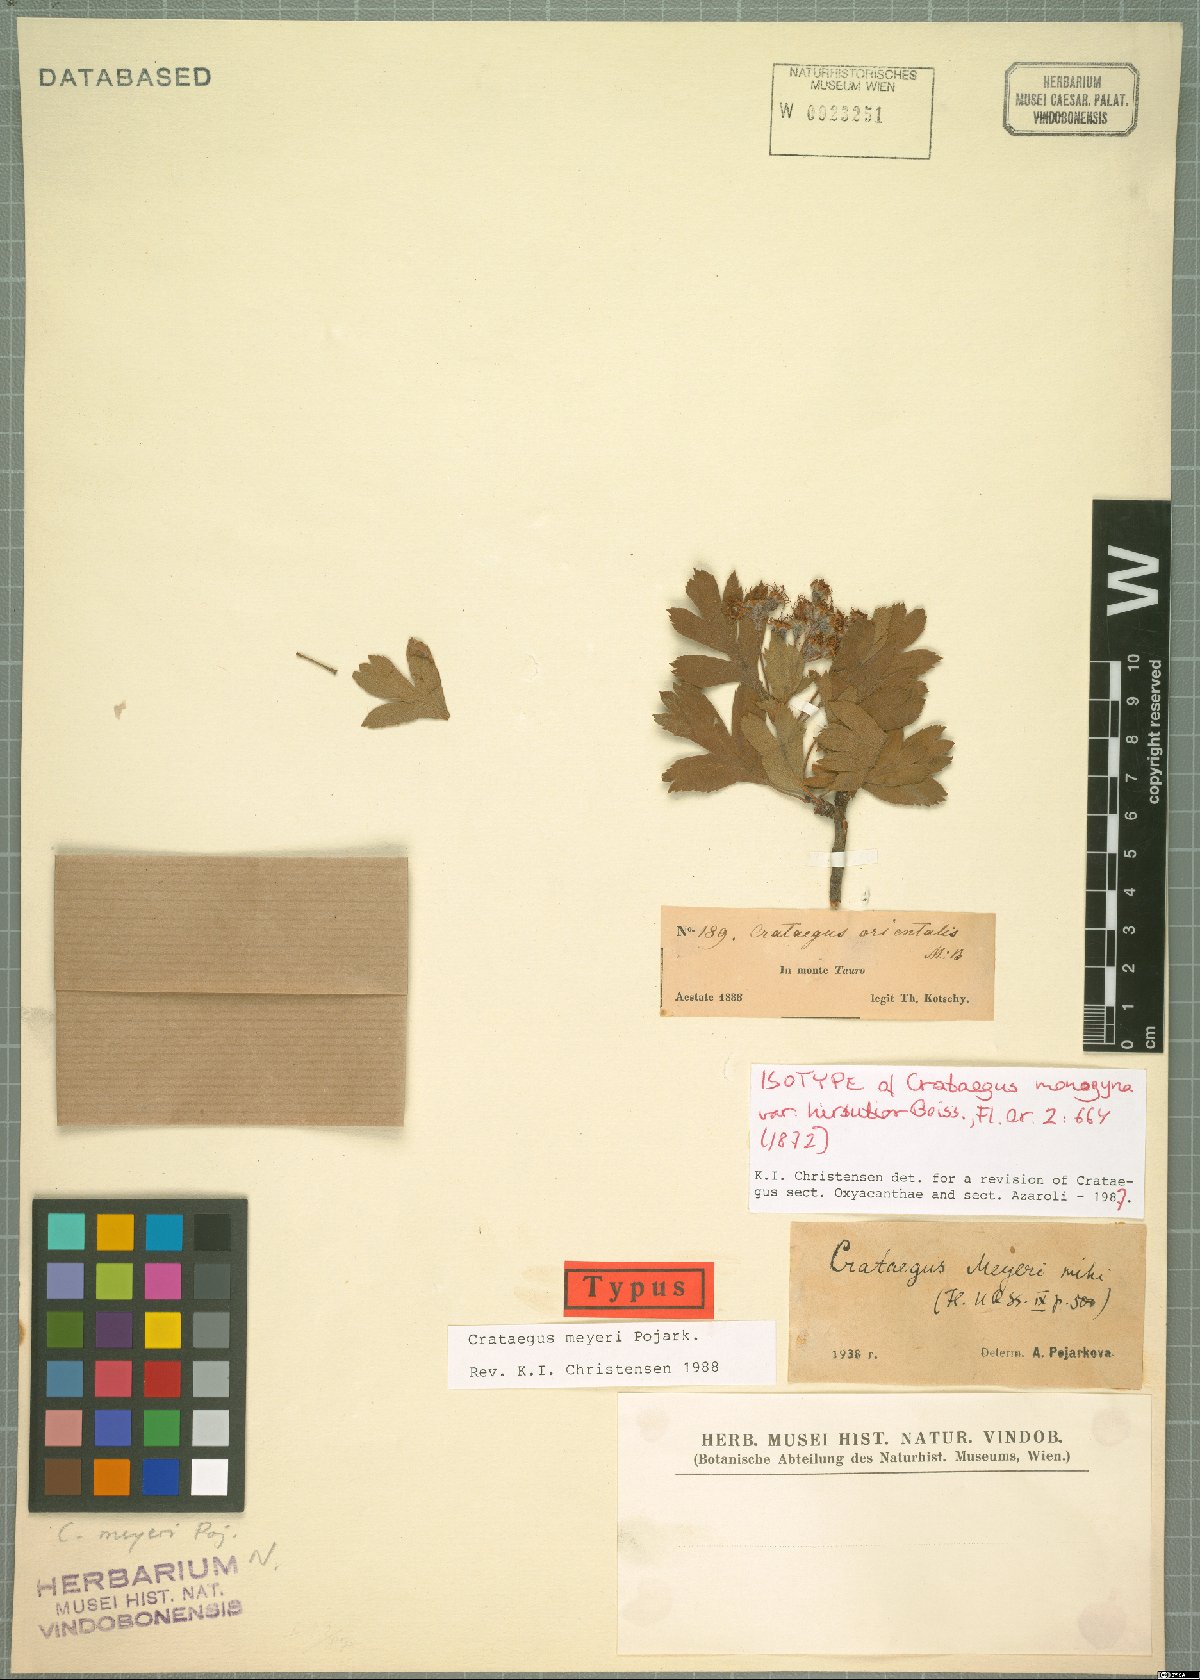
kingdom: Plantae
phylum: Tracheophyta
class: Magnoliopsida
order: Rosales
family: Rosaceae
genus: Crataegus
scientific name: Crataegus meyeri
